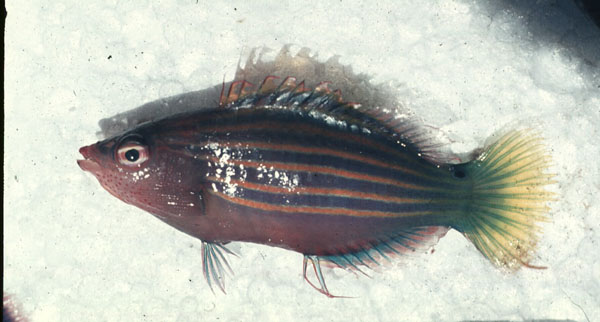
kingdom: Animalia
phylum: Chordata
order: Perciformes
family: Labridae
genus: Pseudocheilinus
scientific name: Pseudocheilinus hexataenia
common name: Sixline wrasse
